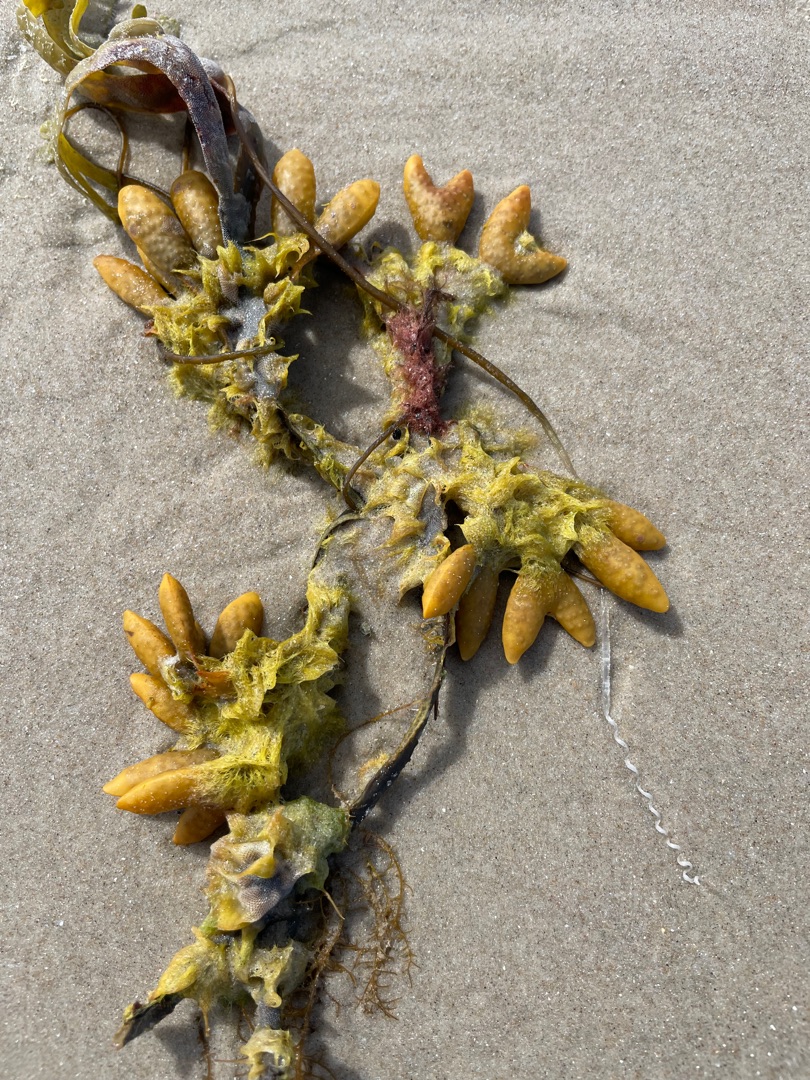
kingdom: Chromista
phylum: Ochrophyta
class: Phaeophyceae
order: Fucales
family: Fucaceae
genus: Fucus
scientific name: Fucus vesiculosus
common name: Blæretang
